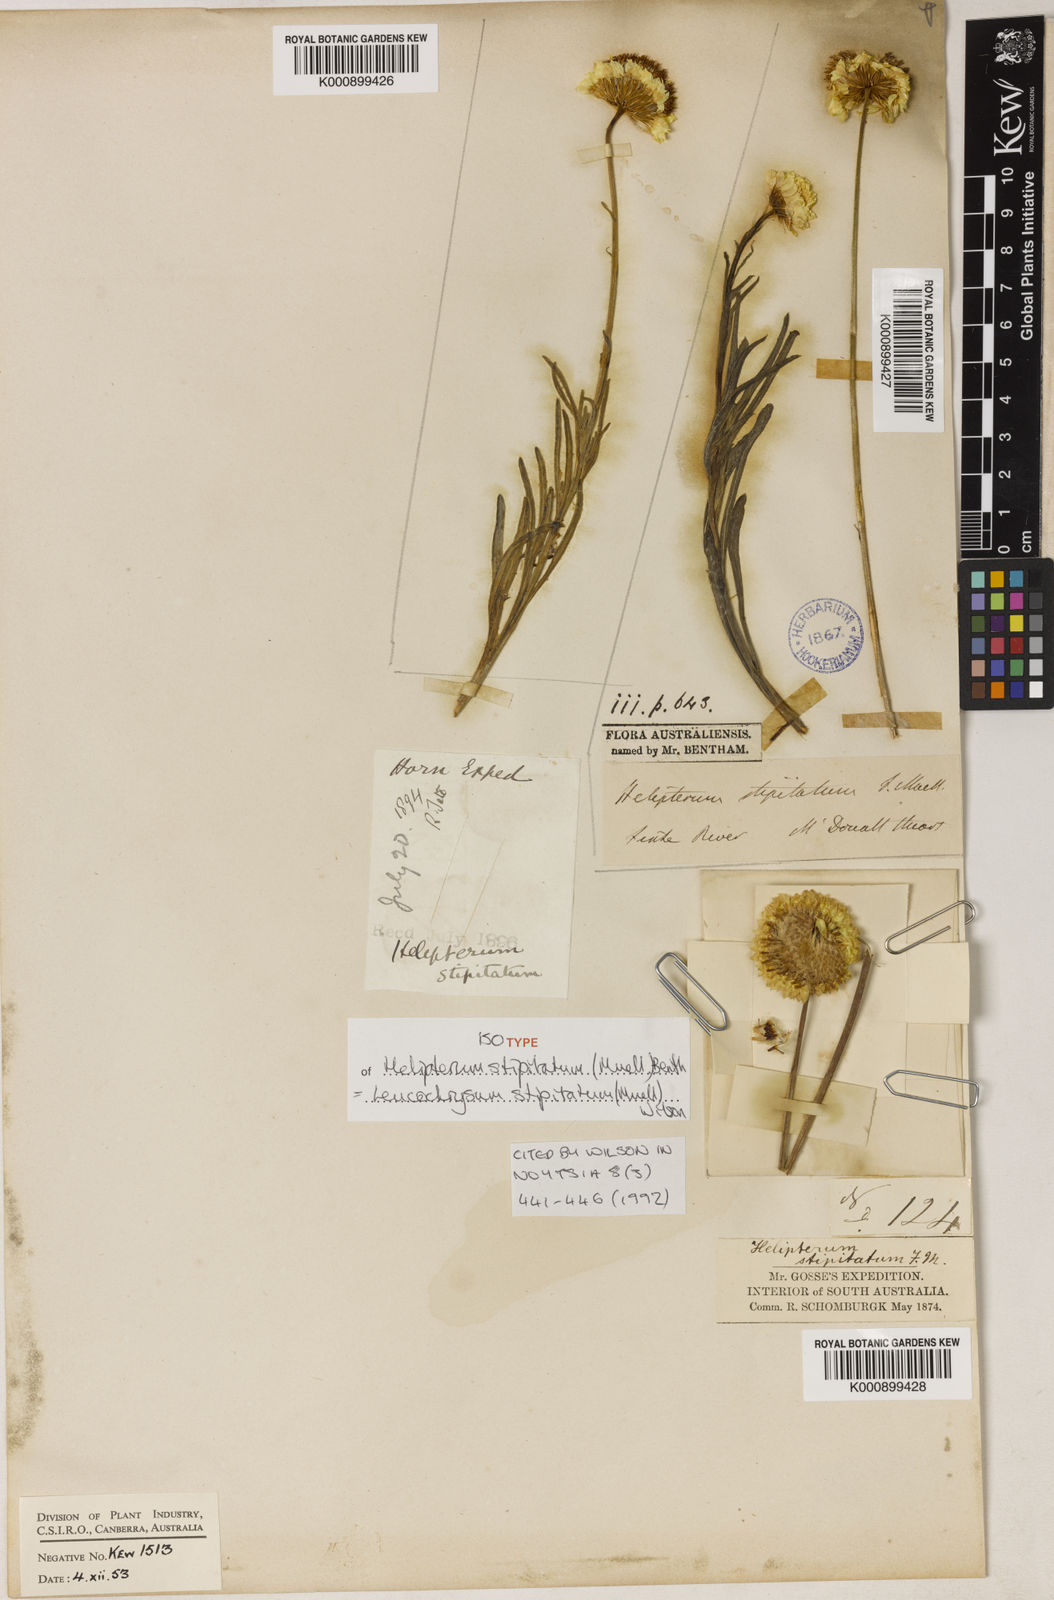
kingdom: Plantae
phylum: Tracheophyta
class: Magnoliopsida
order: Asterales
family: Asteraceae
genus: Leucochrysum
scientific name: Leucochrysum stipitatum
